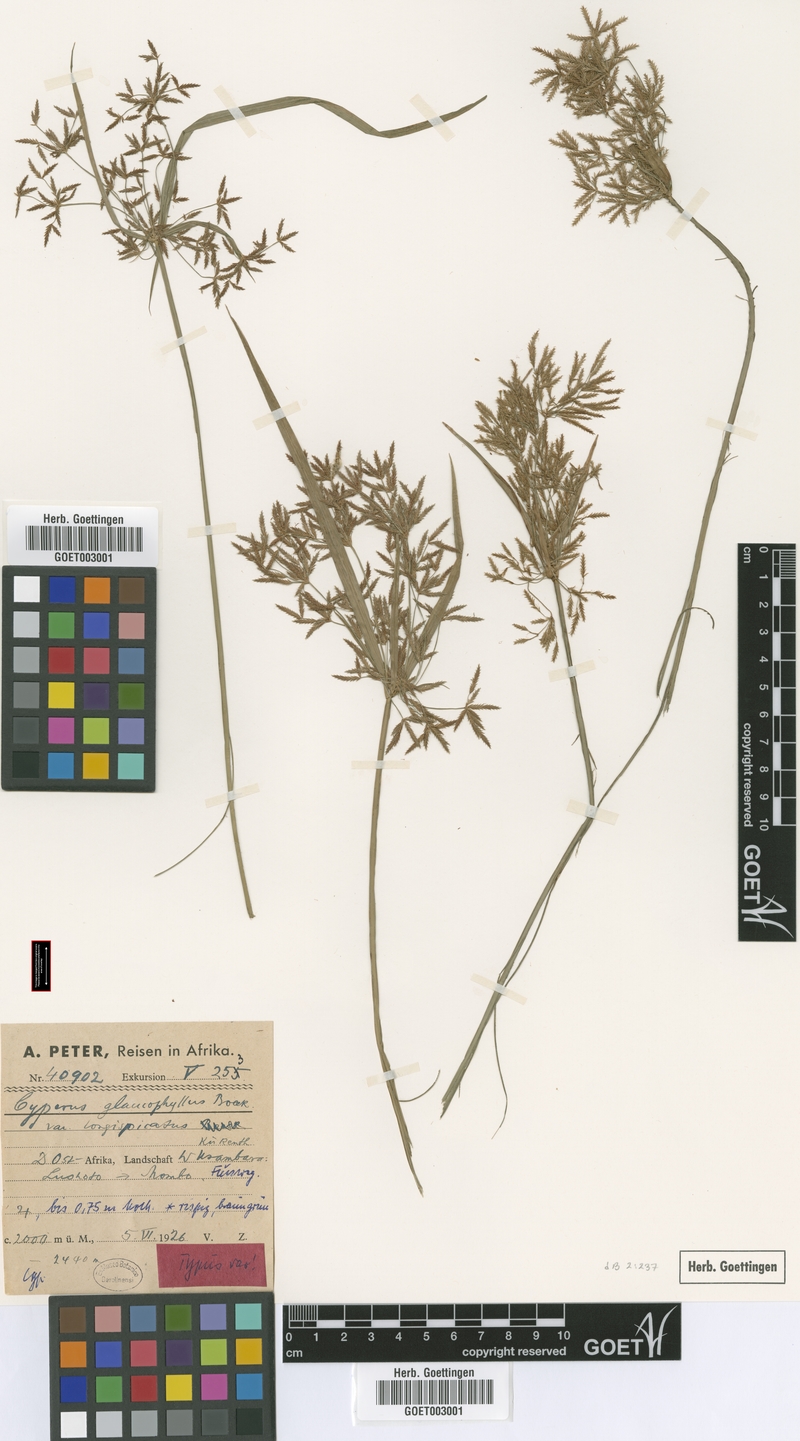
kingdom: Plantae
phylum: Tracheophyta
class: Liliopsida
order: Poales
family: Cyperaceae
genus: Cyperus
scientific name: Cyperus glaucophyllus
